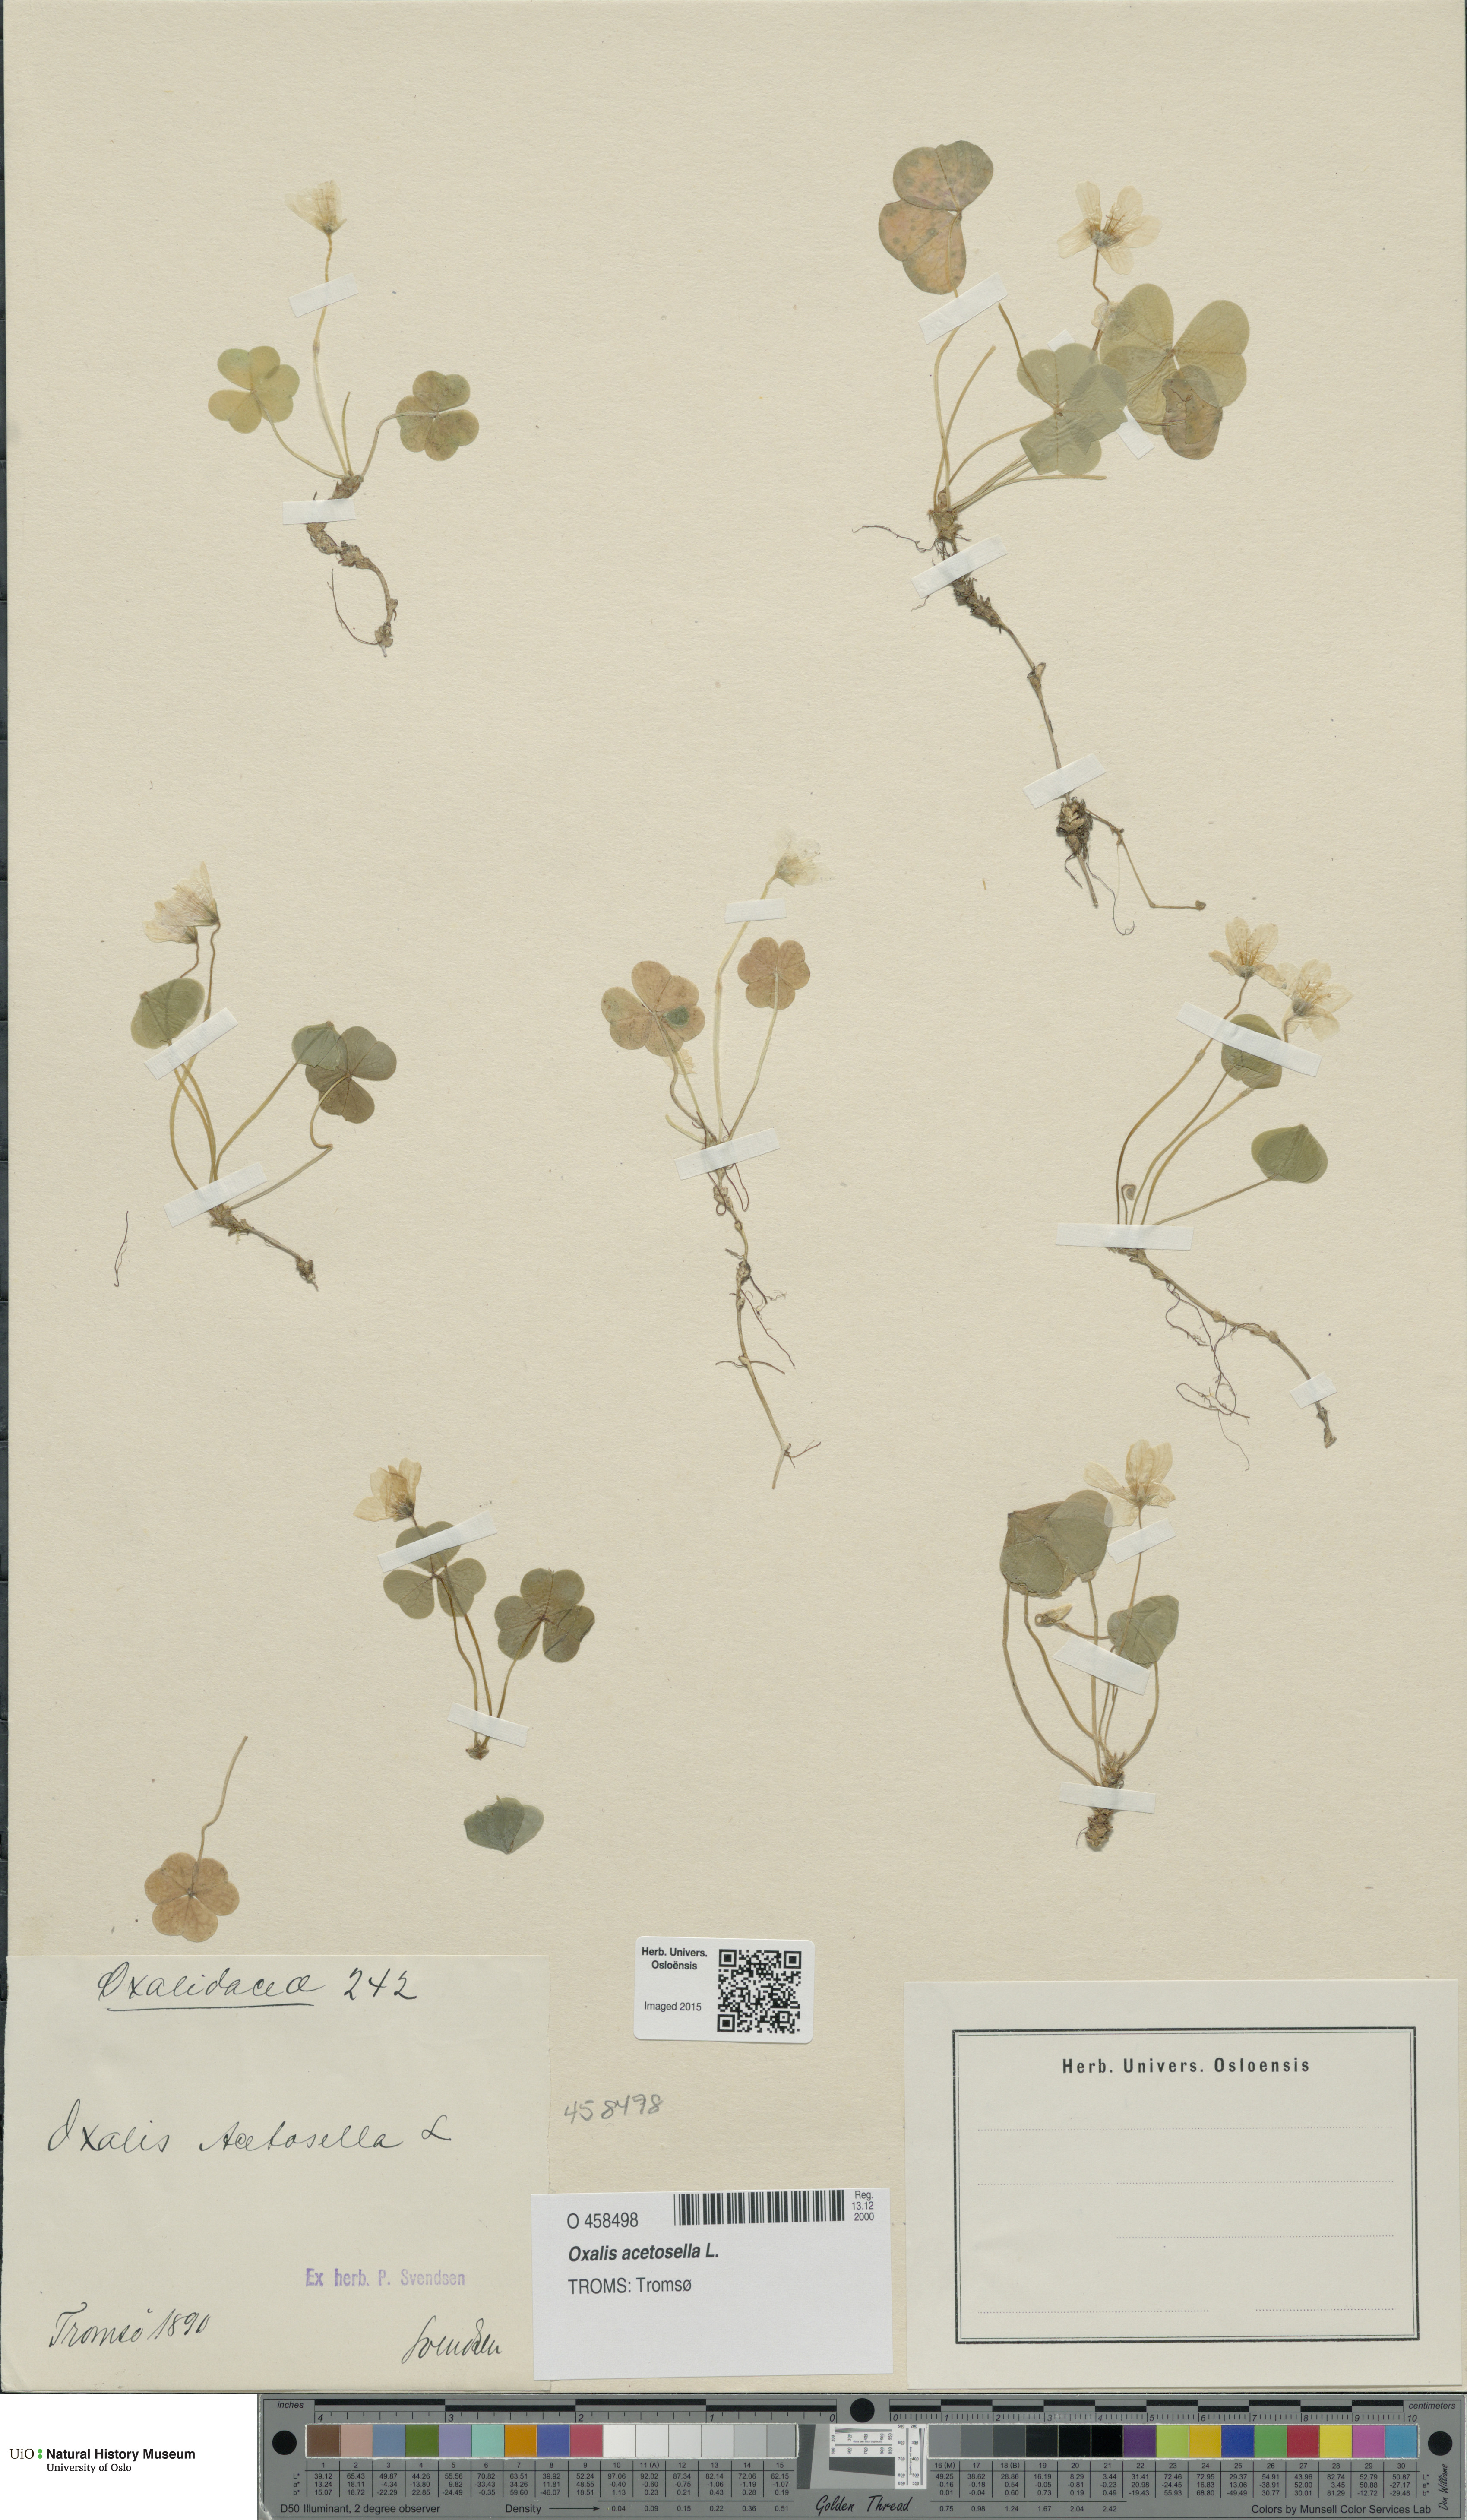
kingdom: Plantae
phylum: Tracheophyta
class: Magnoliopsida
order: Oxalidales
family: Oxalidaceae
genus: Oxalis
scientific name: Oxalis acetosella
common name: Wood-sorrel
